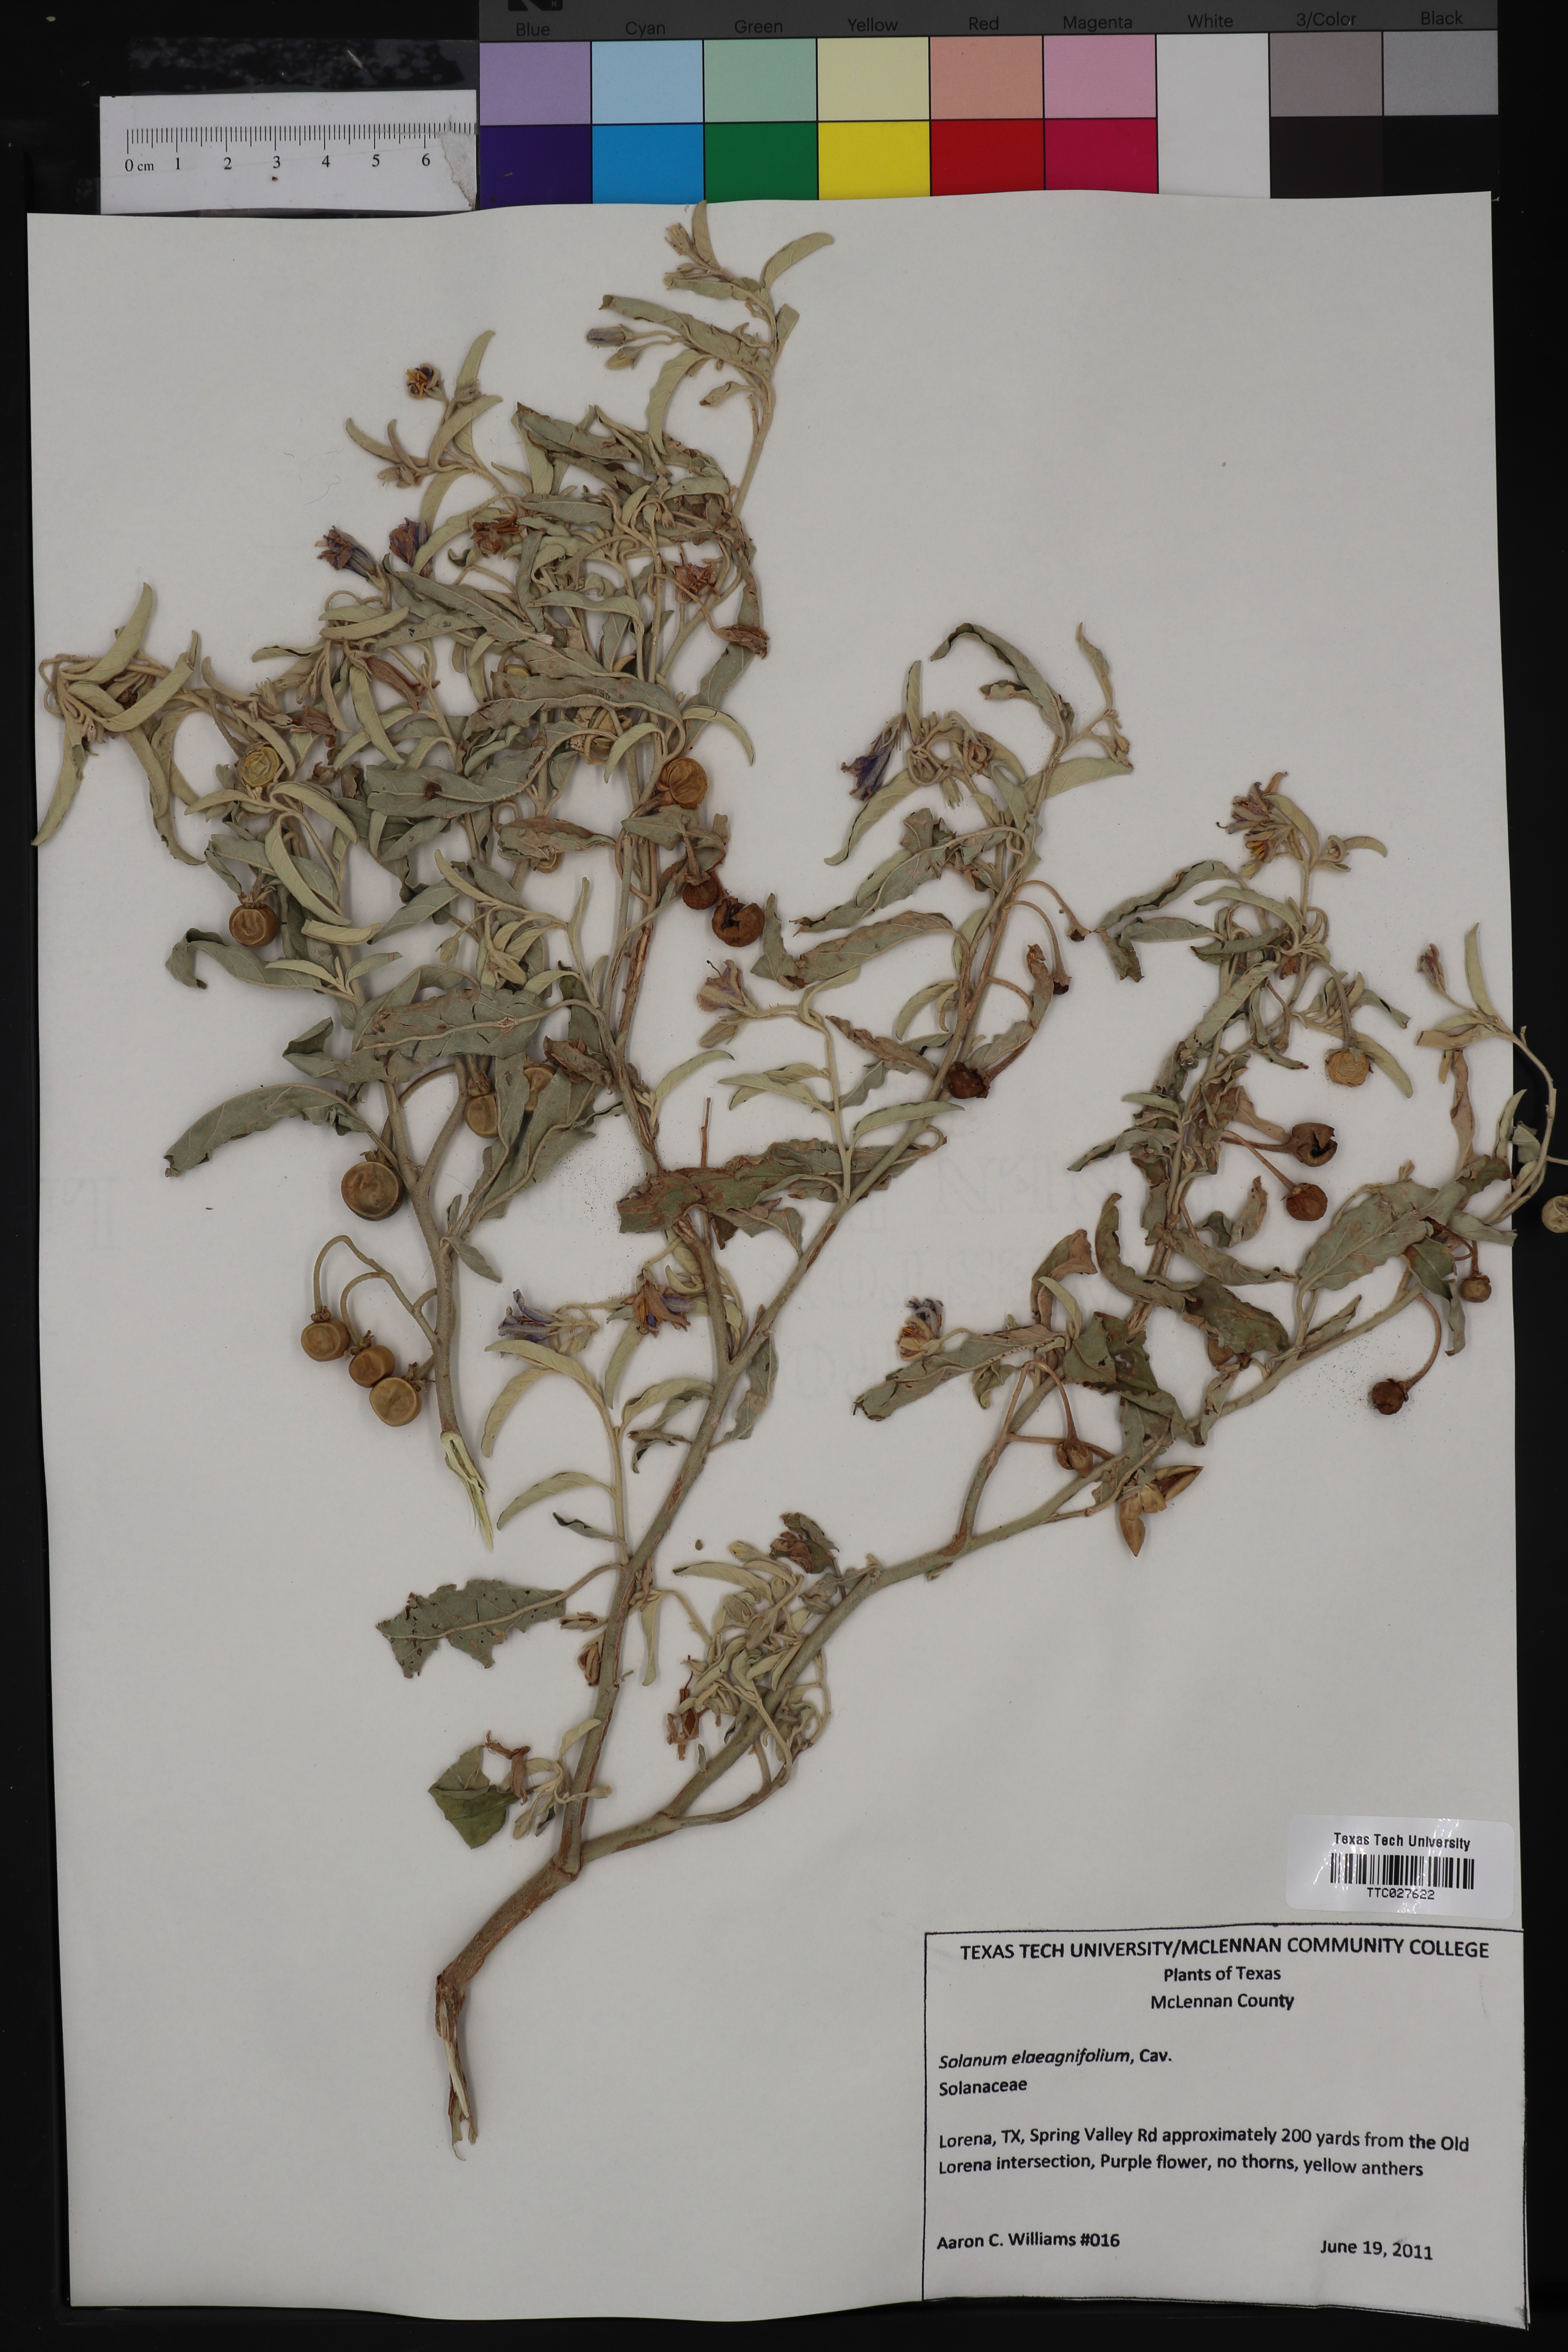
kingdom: Plantae
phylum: Tracheophyta
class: Magnoliopsida
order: Solanales
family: Solanaceae
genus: Solanum
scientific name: Solanum elaeagnifolium
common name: Silverleaf nightshade
